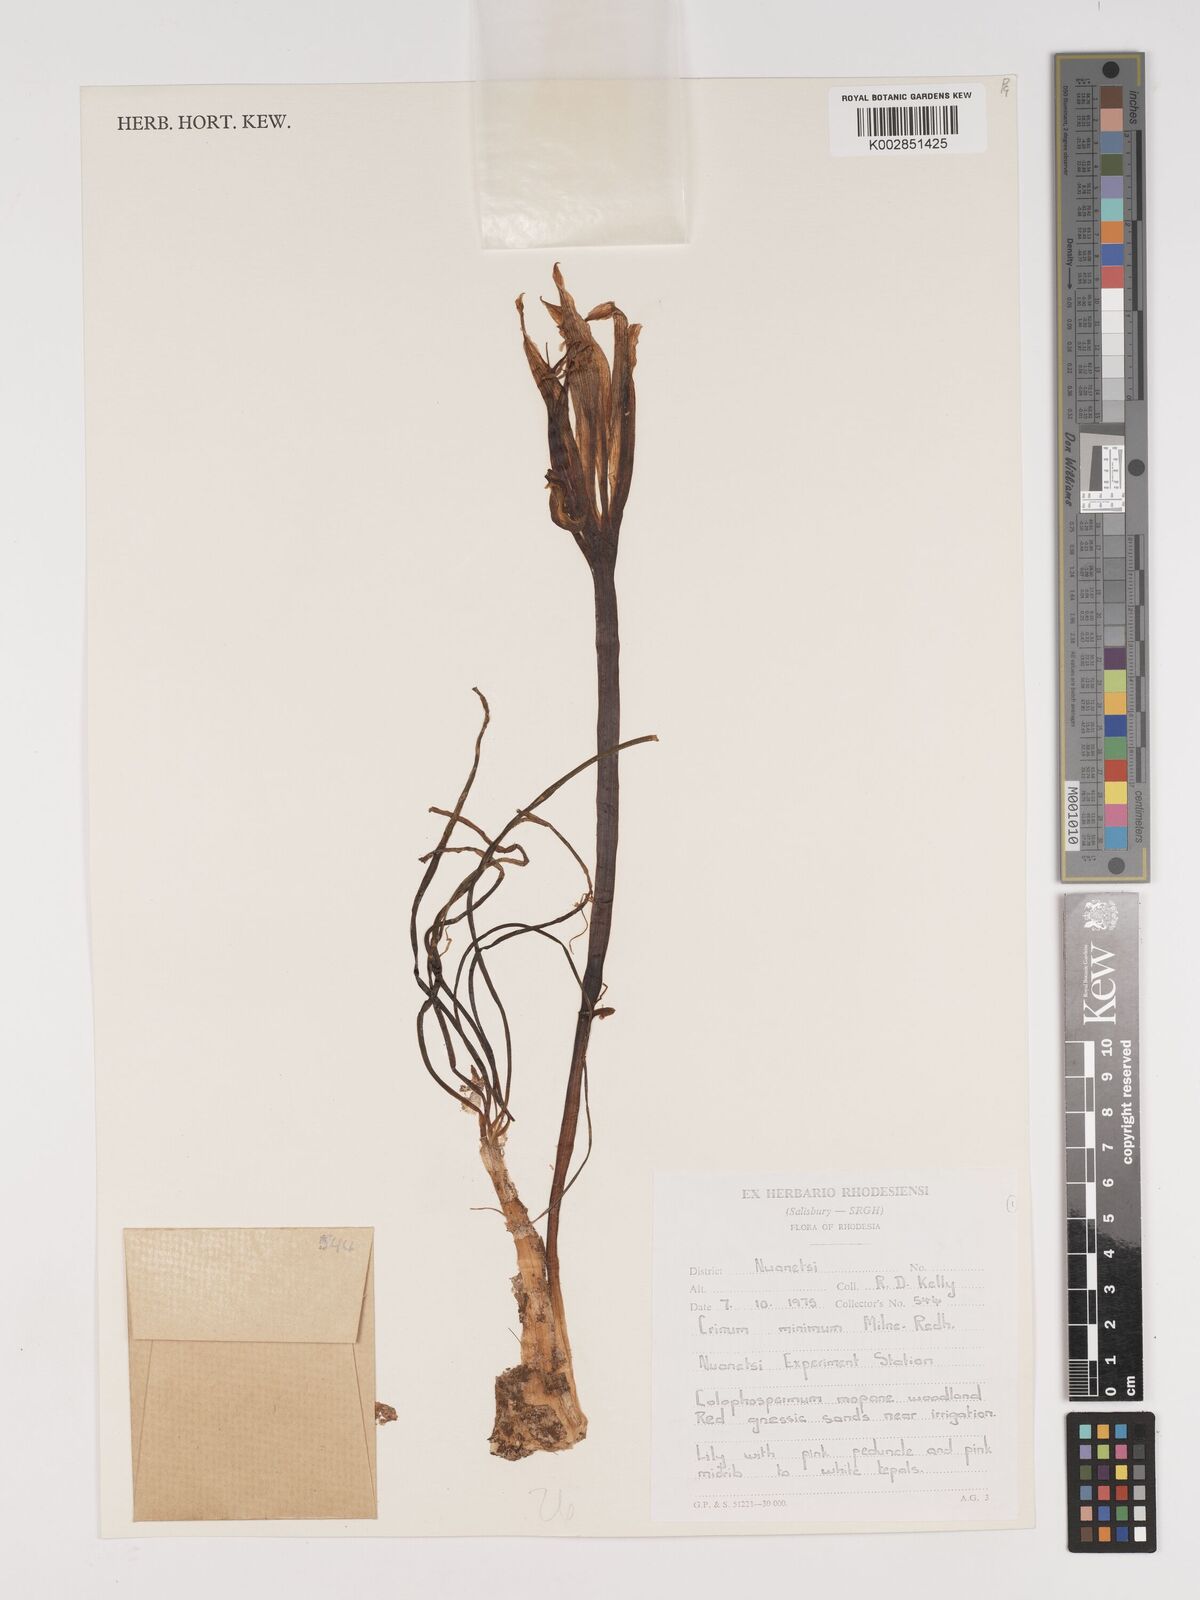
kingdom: Plantae
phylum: Tracheophyta
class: Liliopsida
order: Asparagales
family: Amaryllidaceae
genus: Crinum
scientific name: Crinum walteri
